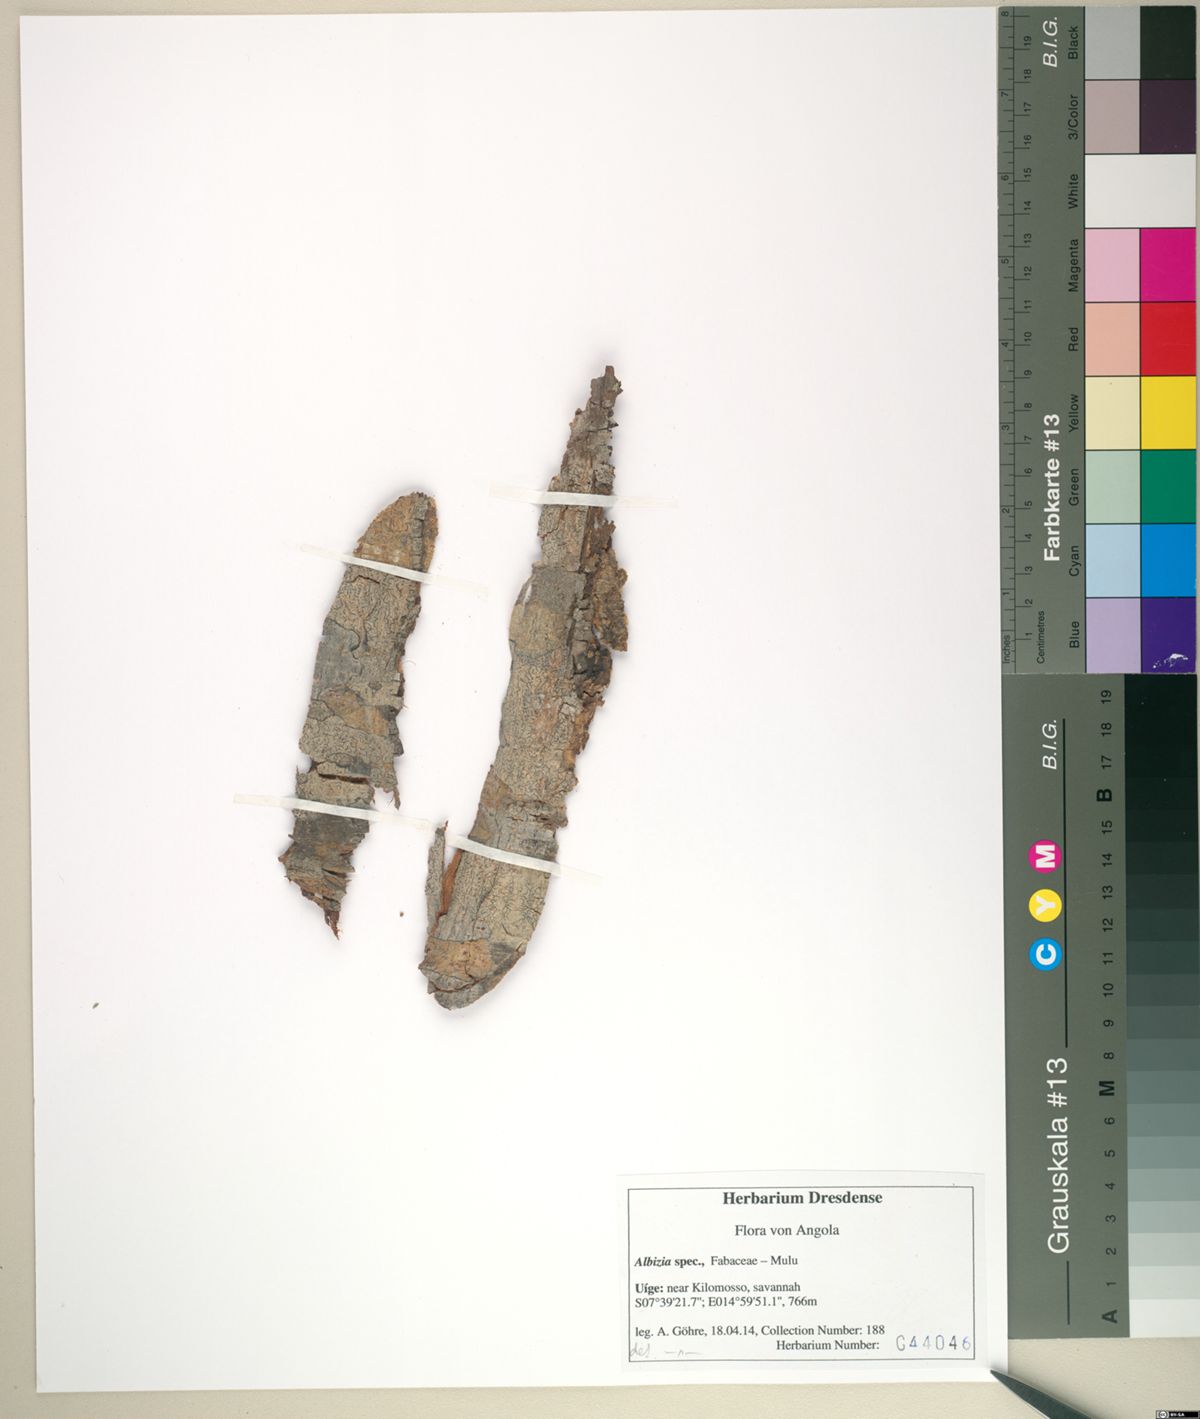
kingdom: Plantae
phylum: Tracheophyta
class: Magnoliopsida
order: Fabales
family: Fabaceae
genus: Albizia
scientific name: Albizia adianthifolia
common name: West african albizia
